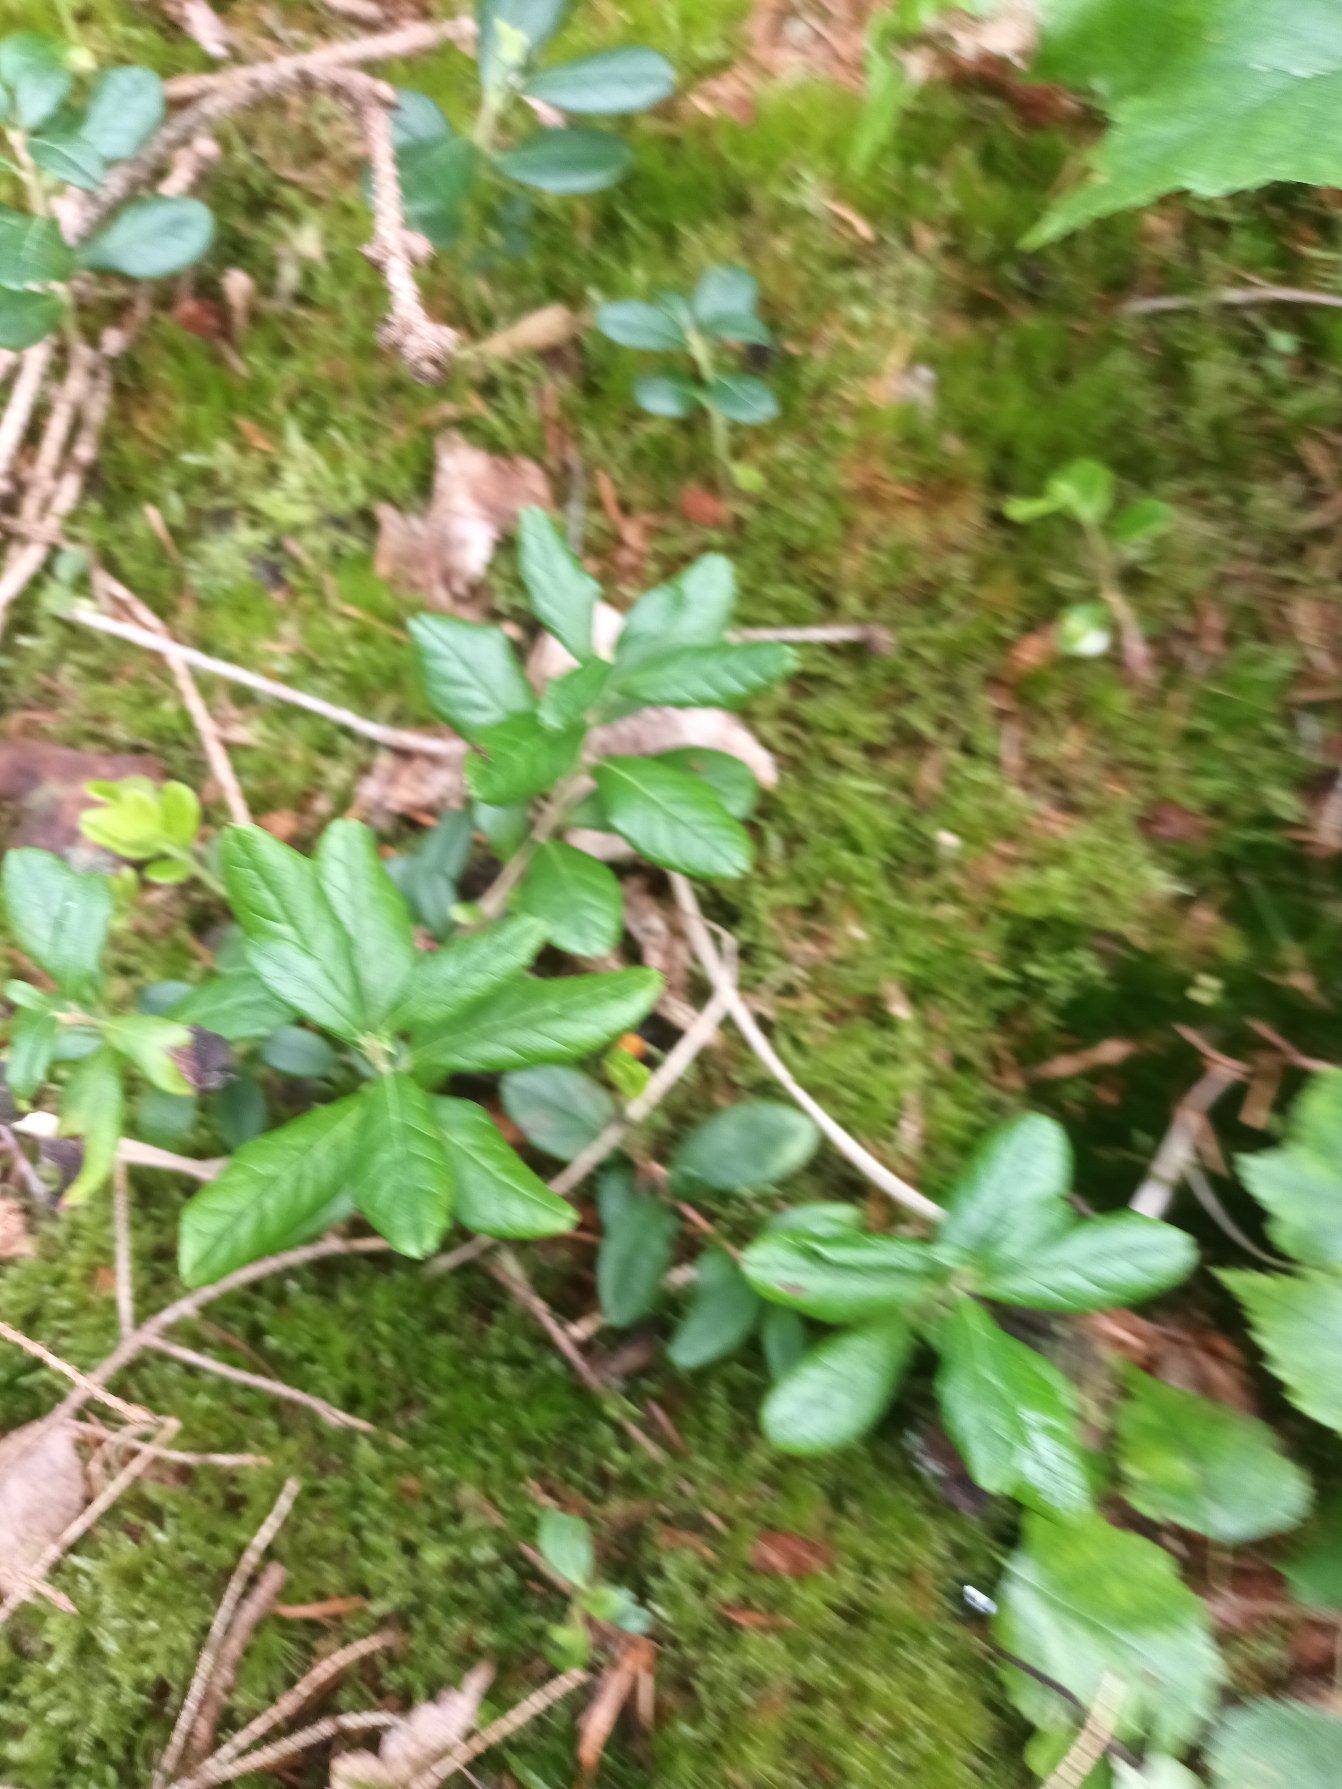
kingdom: Plantae
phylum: Tracheophyta
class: Magnoliopsida
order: Ericales
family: Ericaceae
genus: Vaccinium
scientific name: Vaccinium vitis-idaea
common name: Tyttebær
